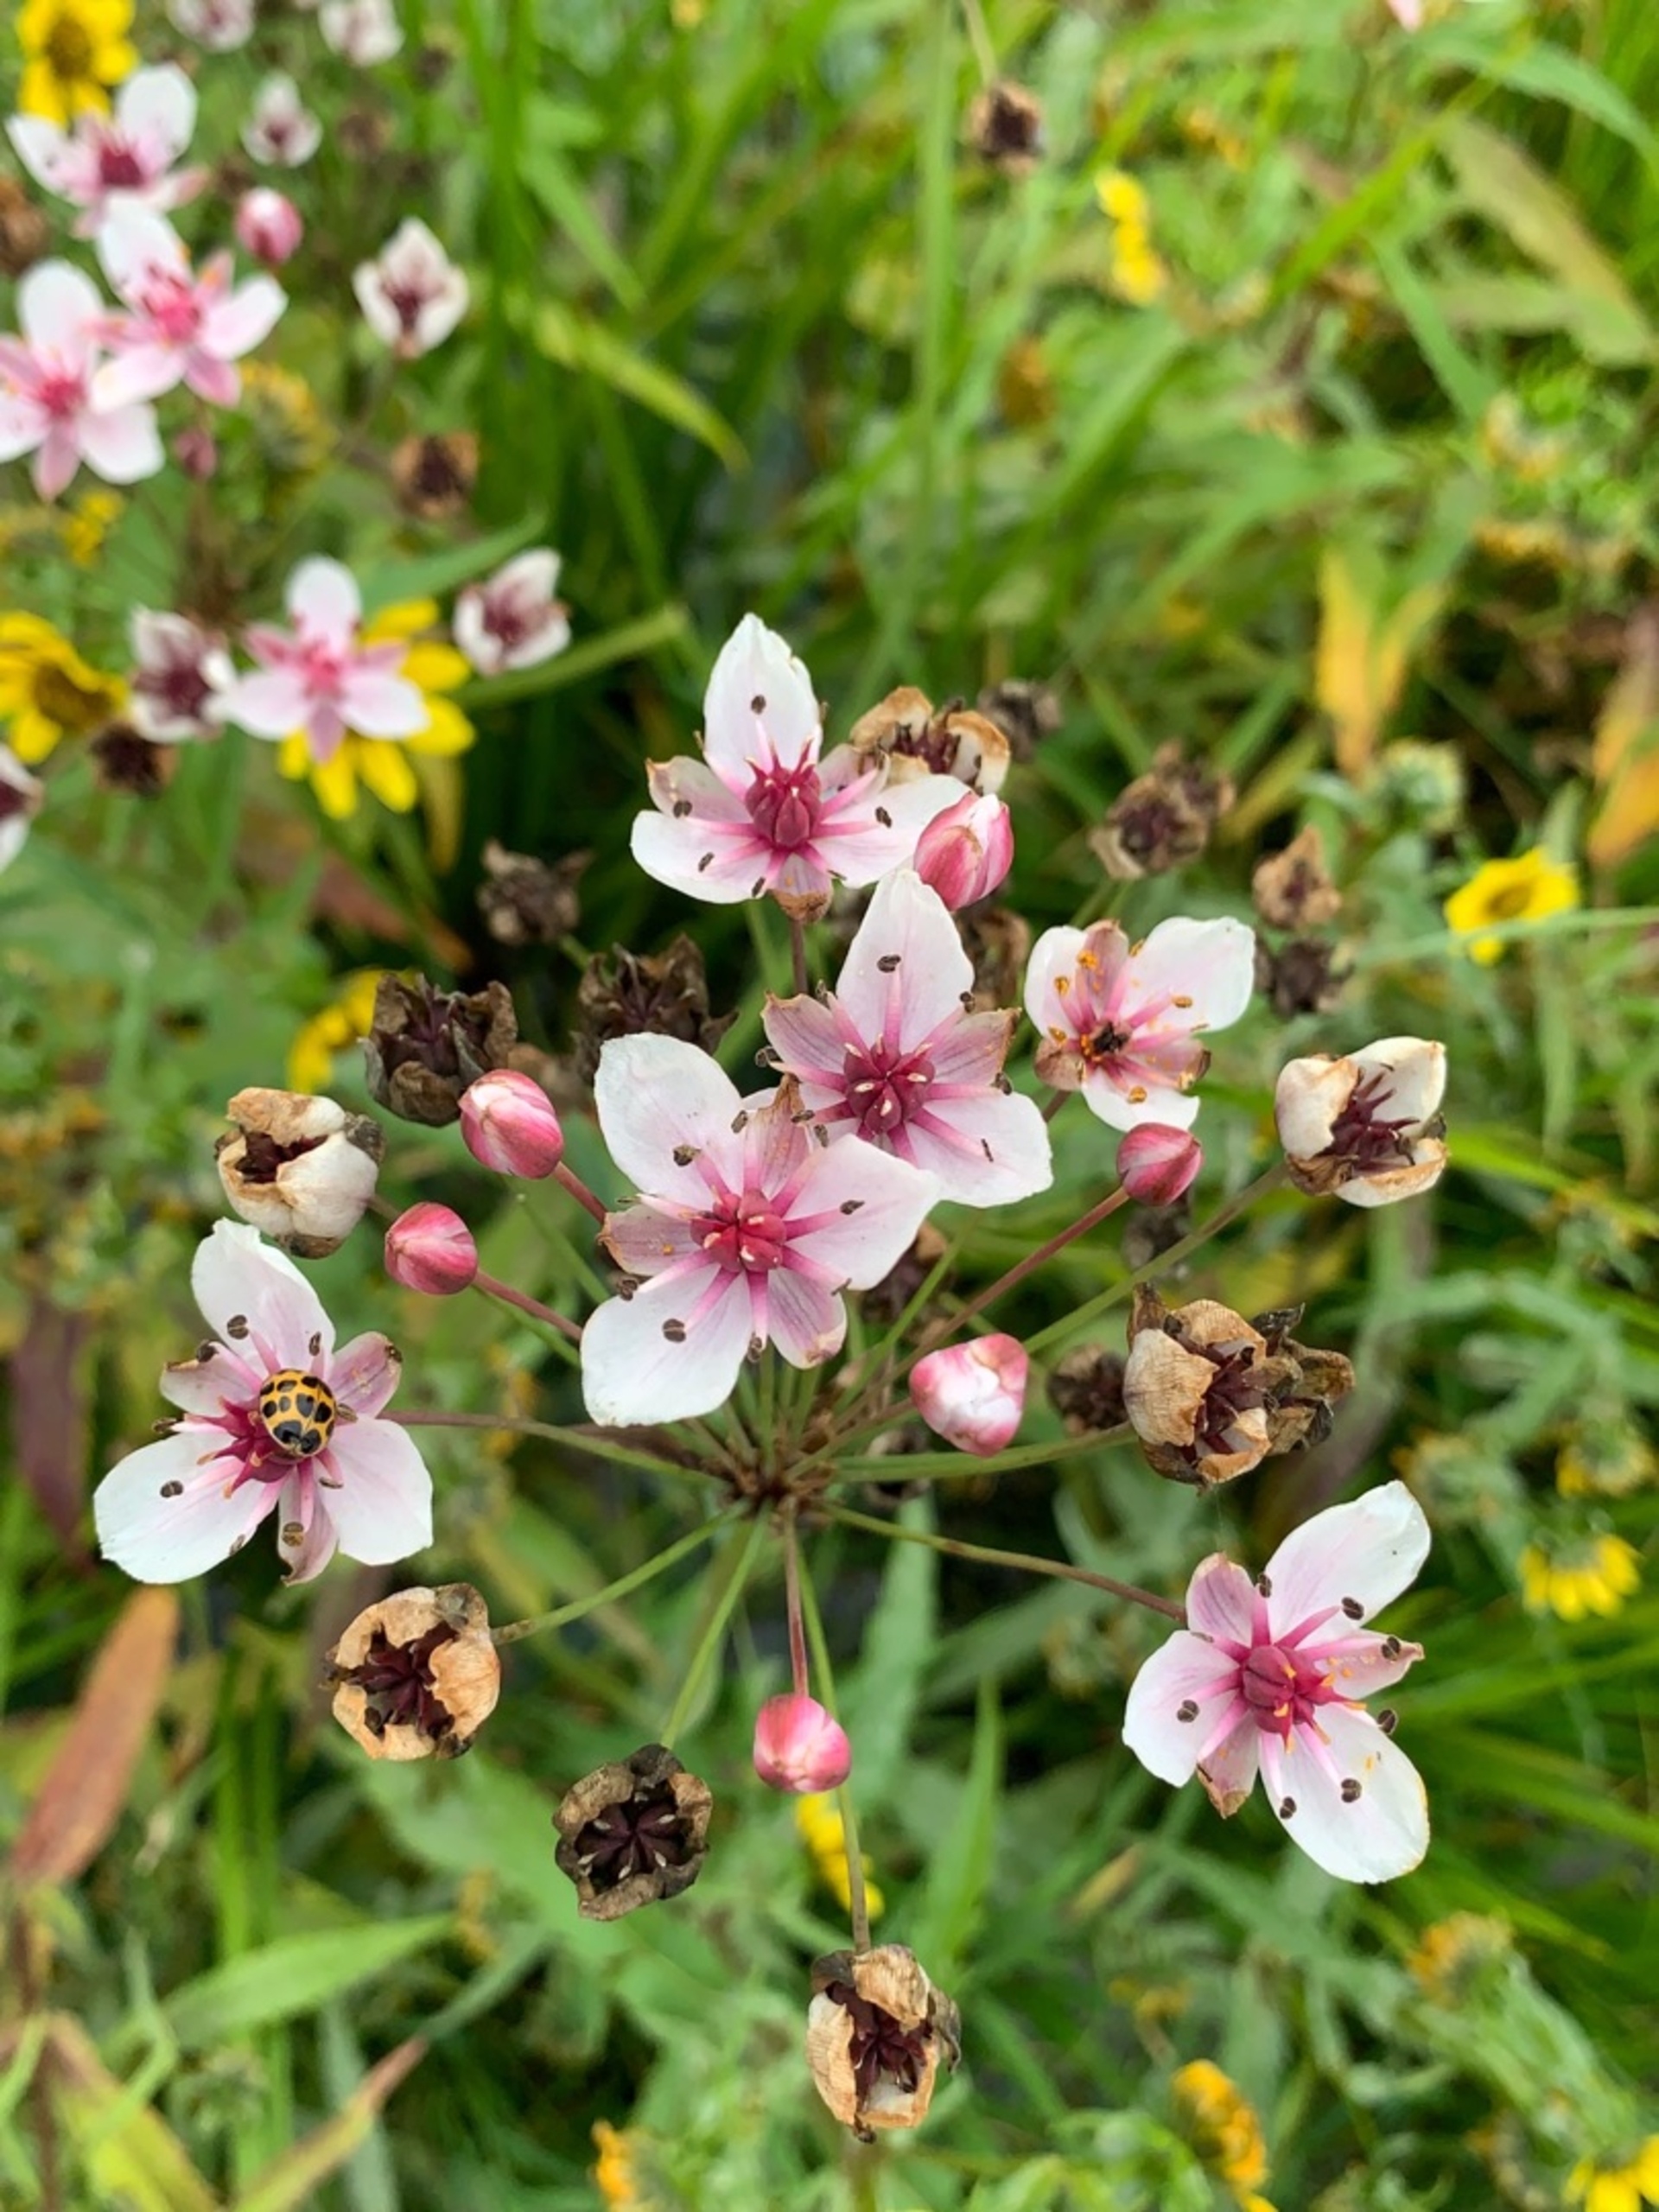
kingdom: Plantae
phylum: Tracheophyta
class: Liliopsida
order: Alismatales
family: Butomaceae
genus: Butomus
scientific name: Butomus umbellatus
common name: Brudelys
